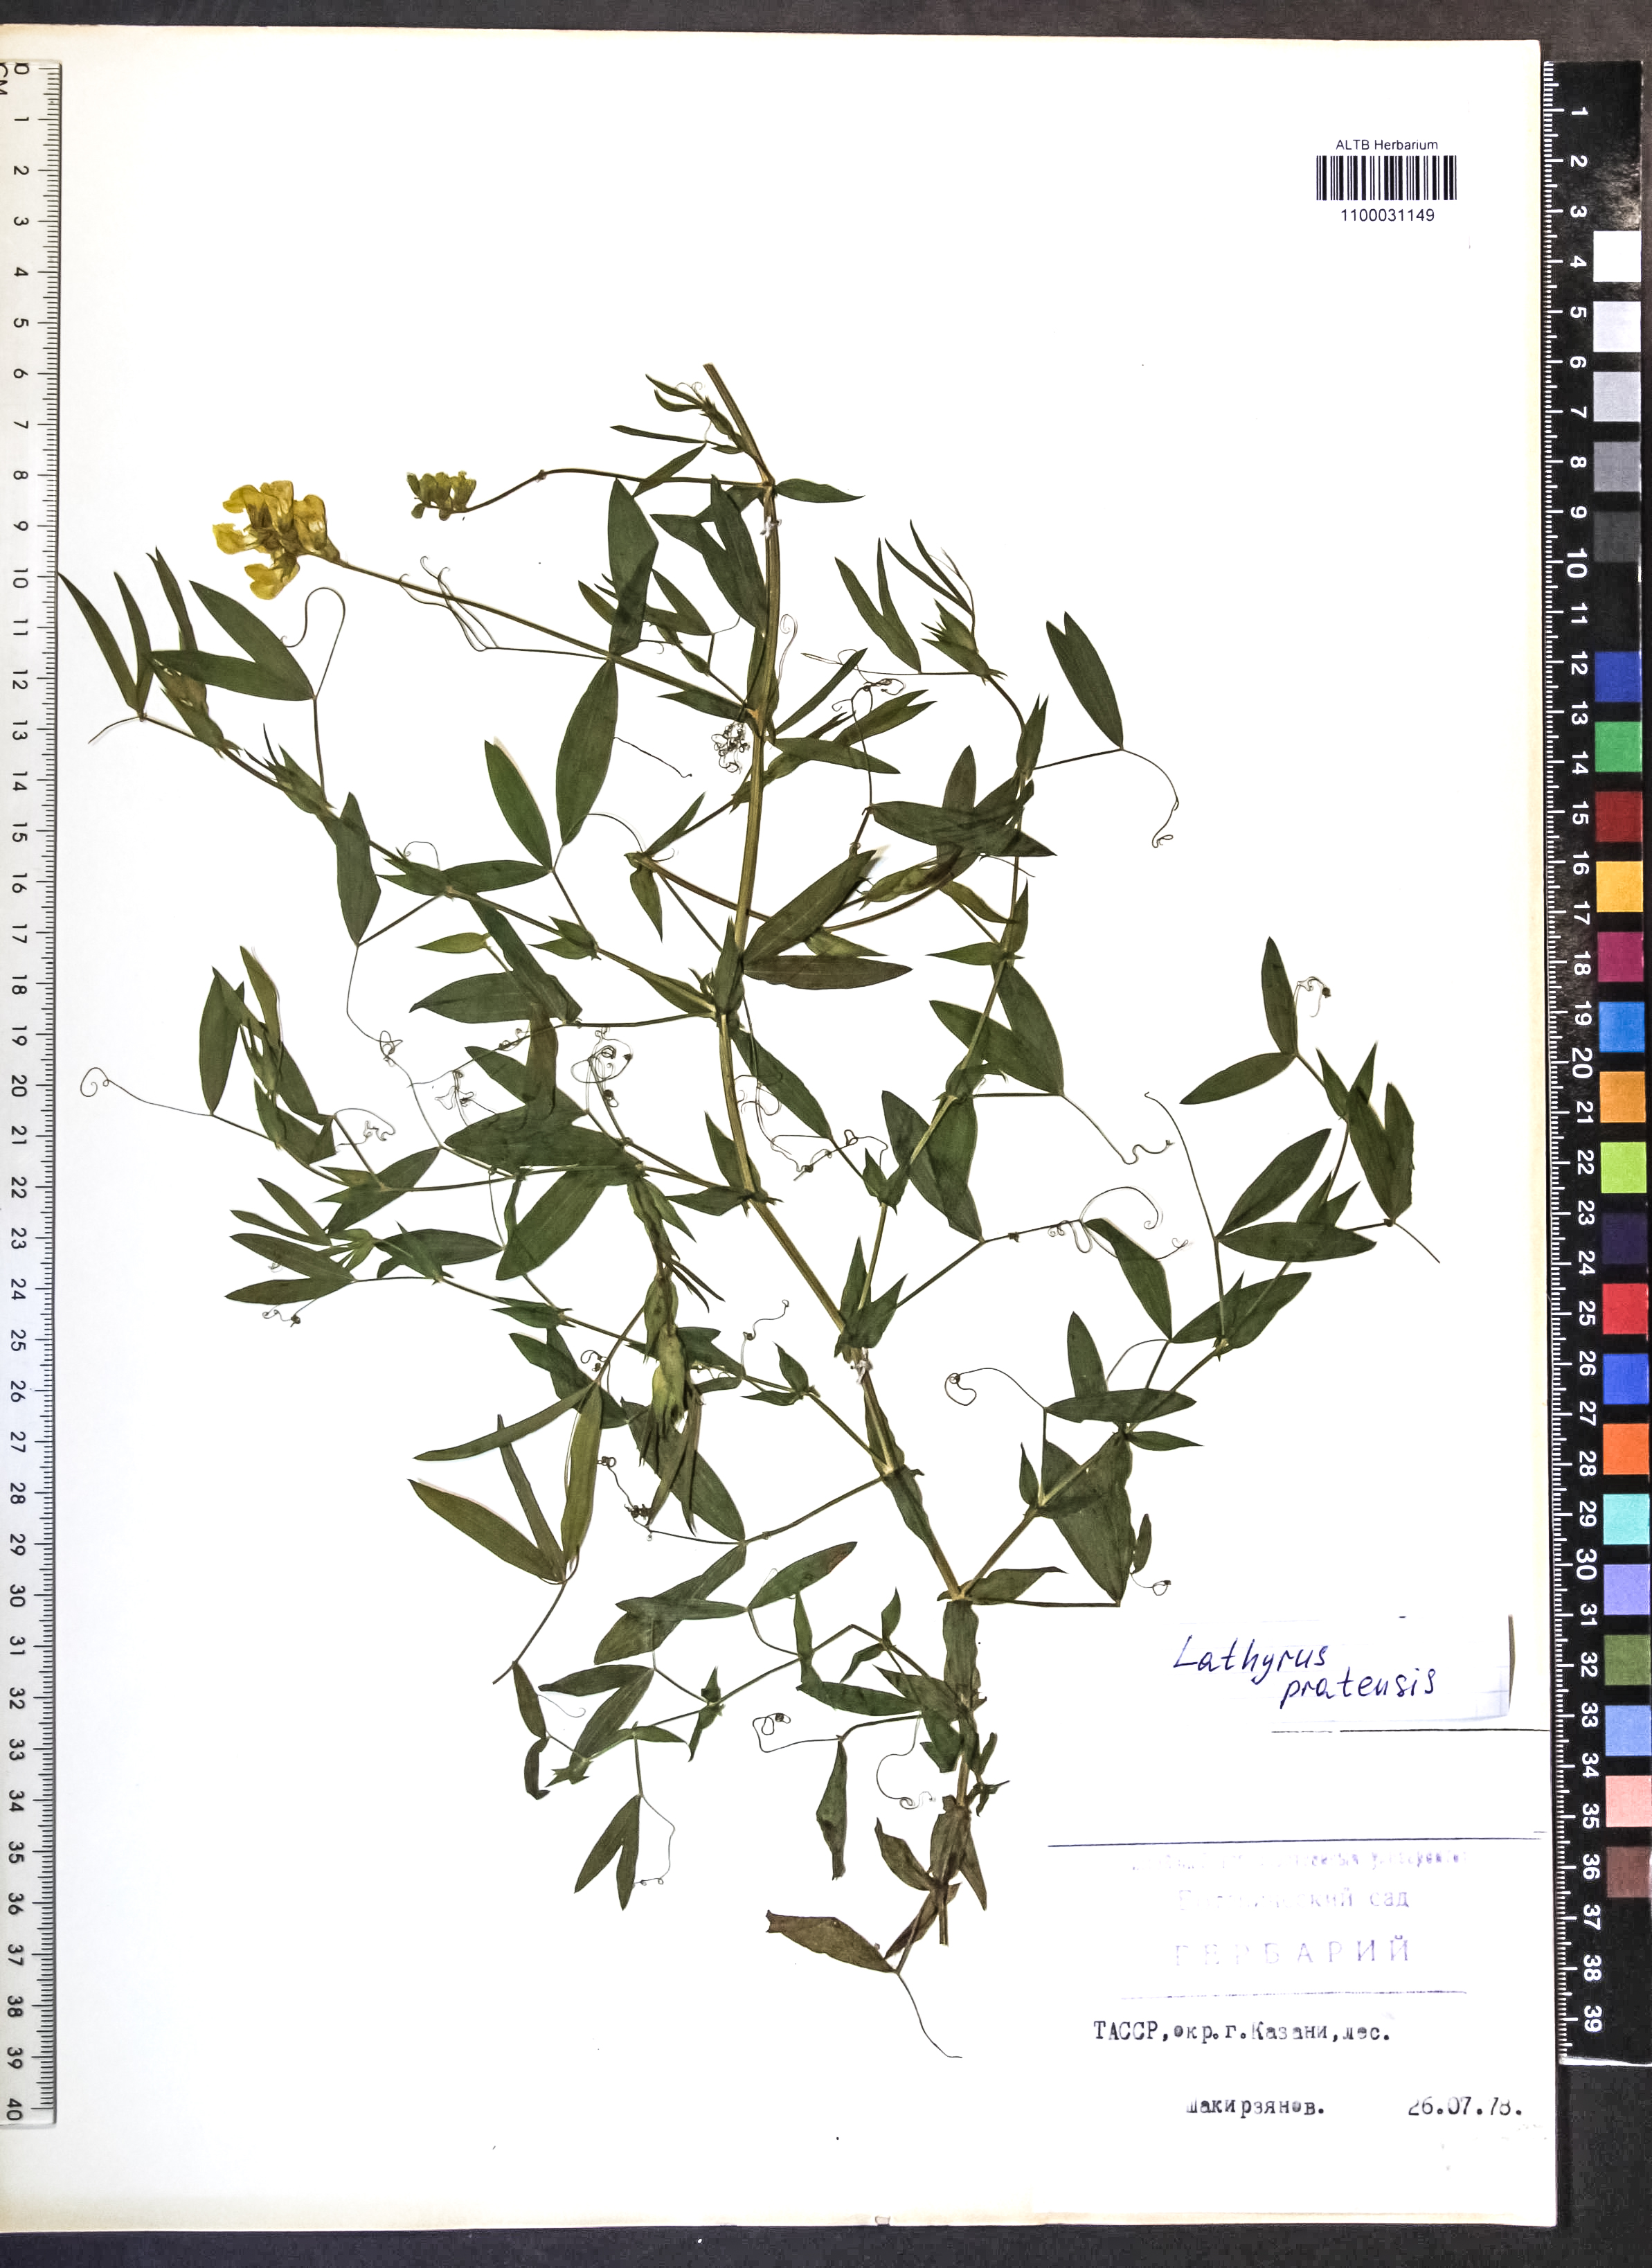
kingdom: Plantae
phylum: Tracheophyta
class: Magnoliopsida
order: Fabales
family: Fabaceae
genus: Lathyrus
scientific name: Lathyrus pratensis
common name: Meadow vetchling
